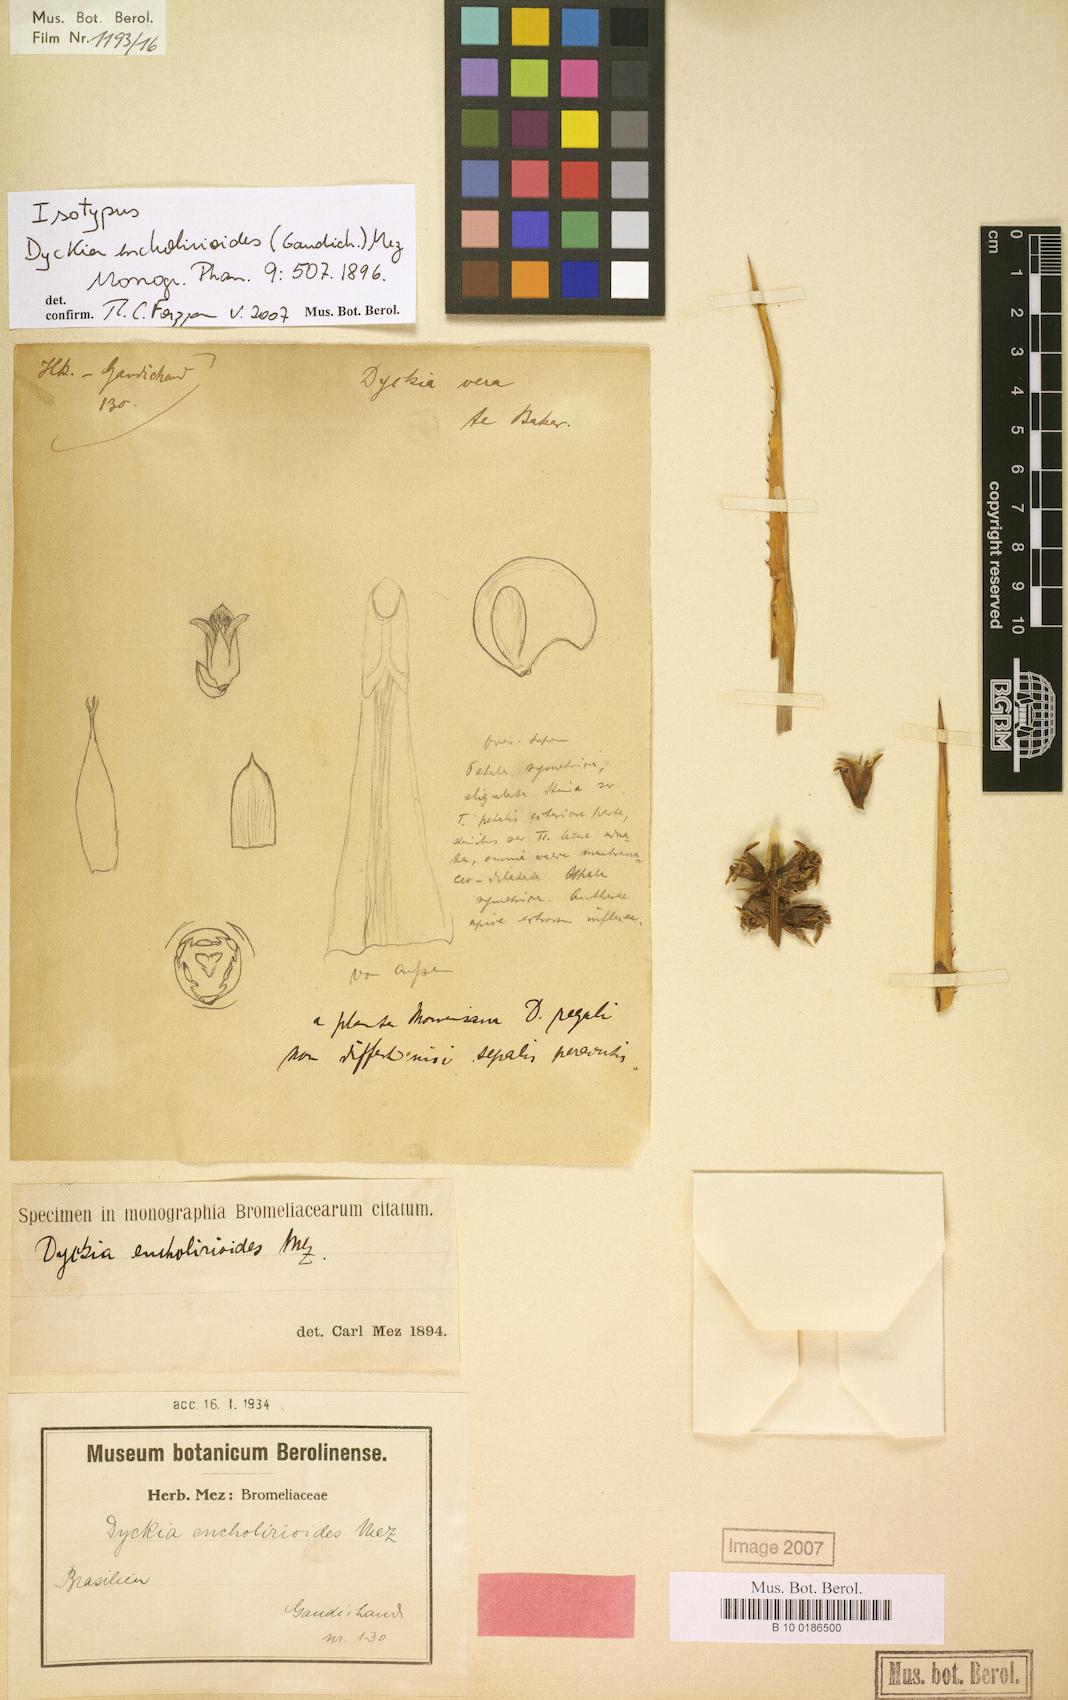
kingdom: Plantae
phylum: Tracheophyta
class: Liliopsida
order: Poales
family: Bromeliaceae
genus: Dyckia
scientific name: Dyckia encholirioides
